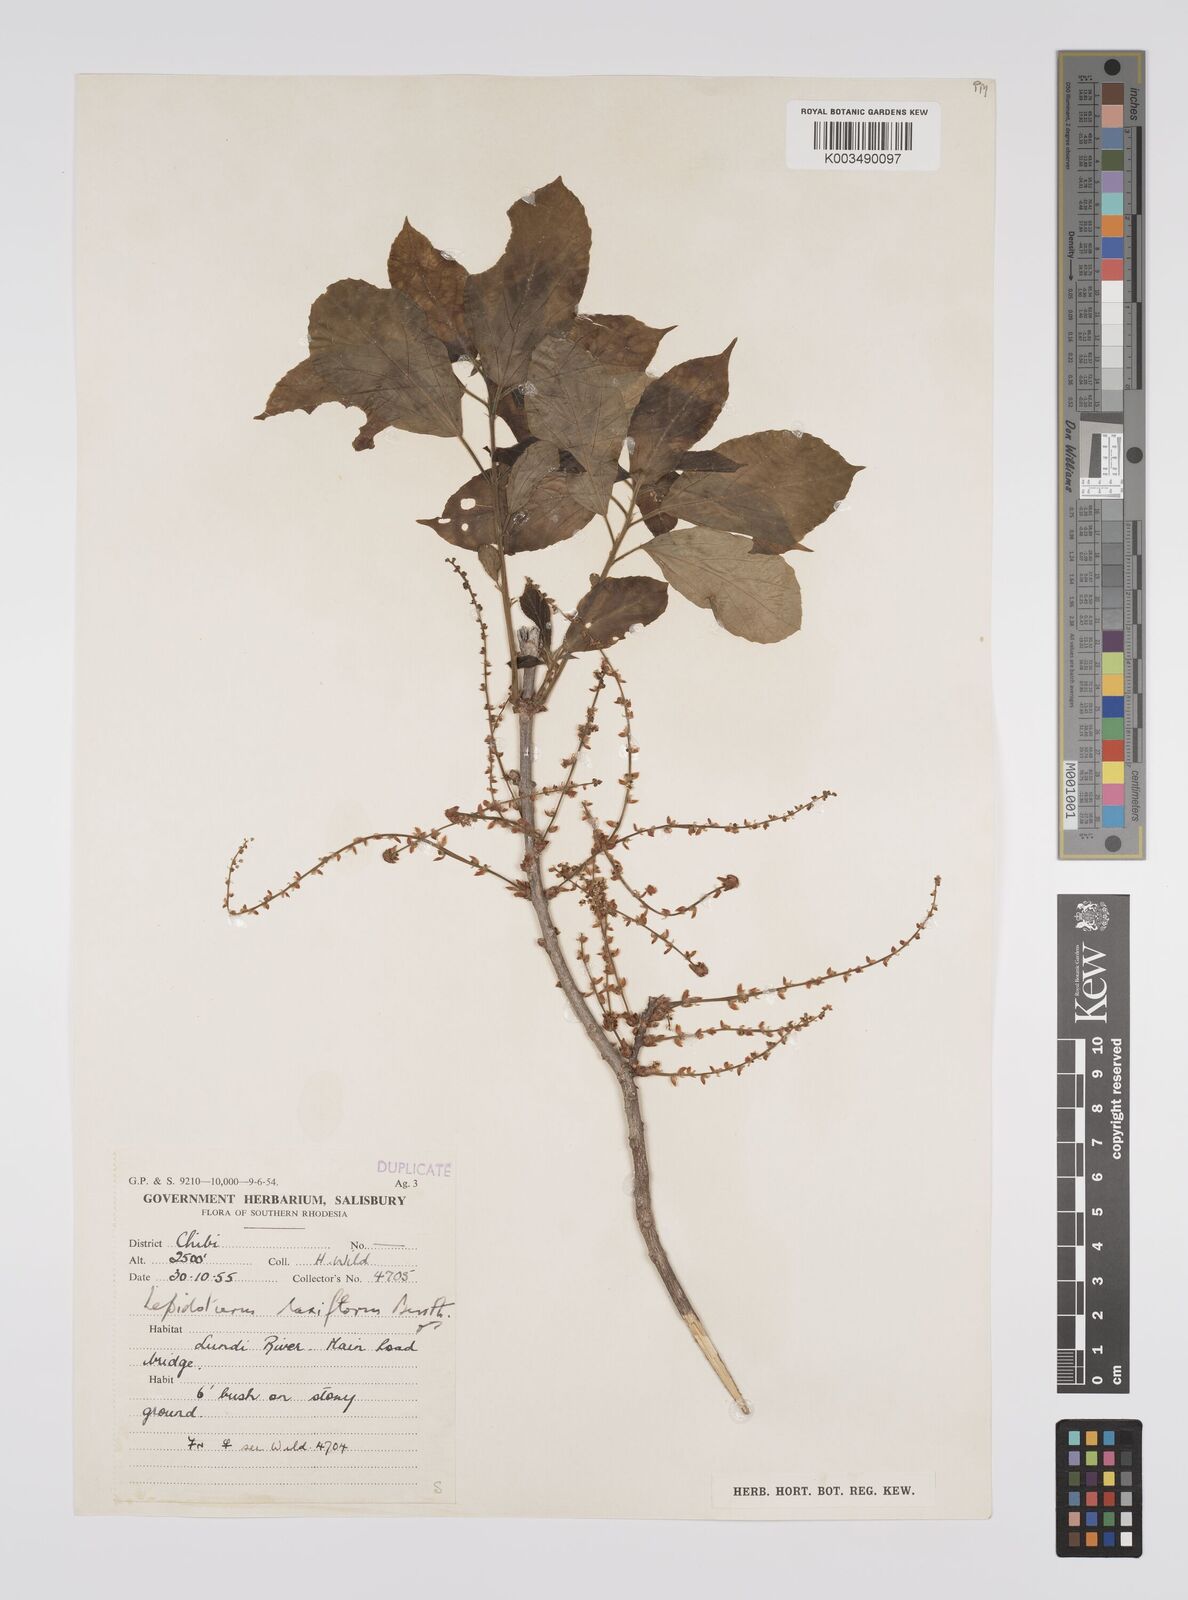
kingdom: Plantae
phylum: Tracheophyta
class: Magnoliopsida
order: Malpighiales
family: Euphorbiaceae
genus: Alchornea
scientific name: Alchornea laxiflora
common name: Lowveld bead-string
